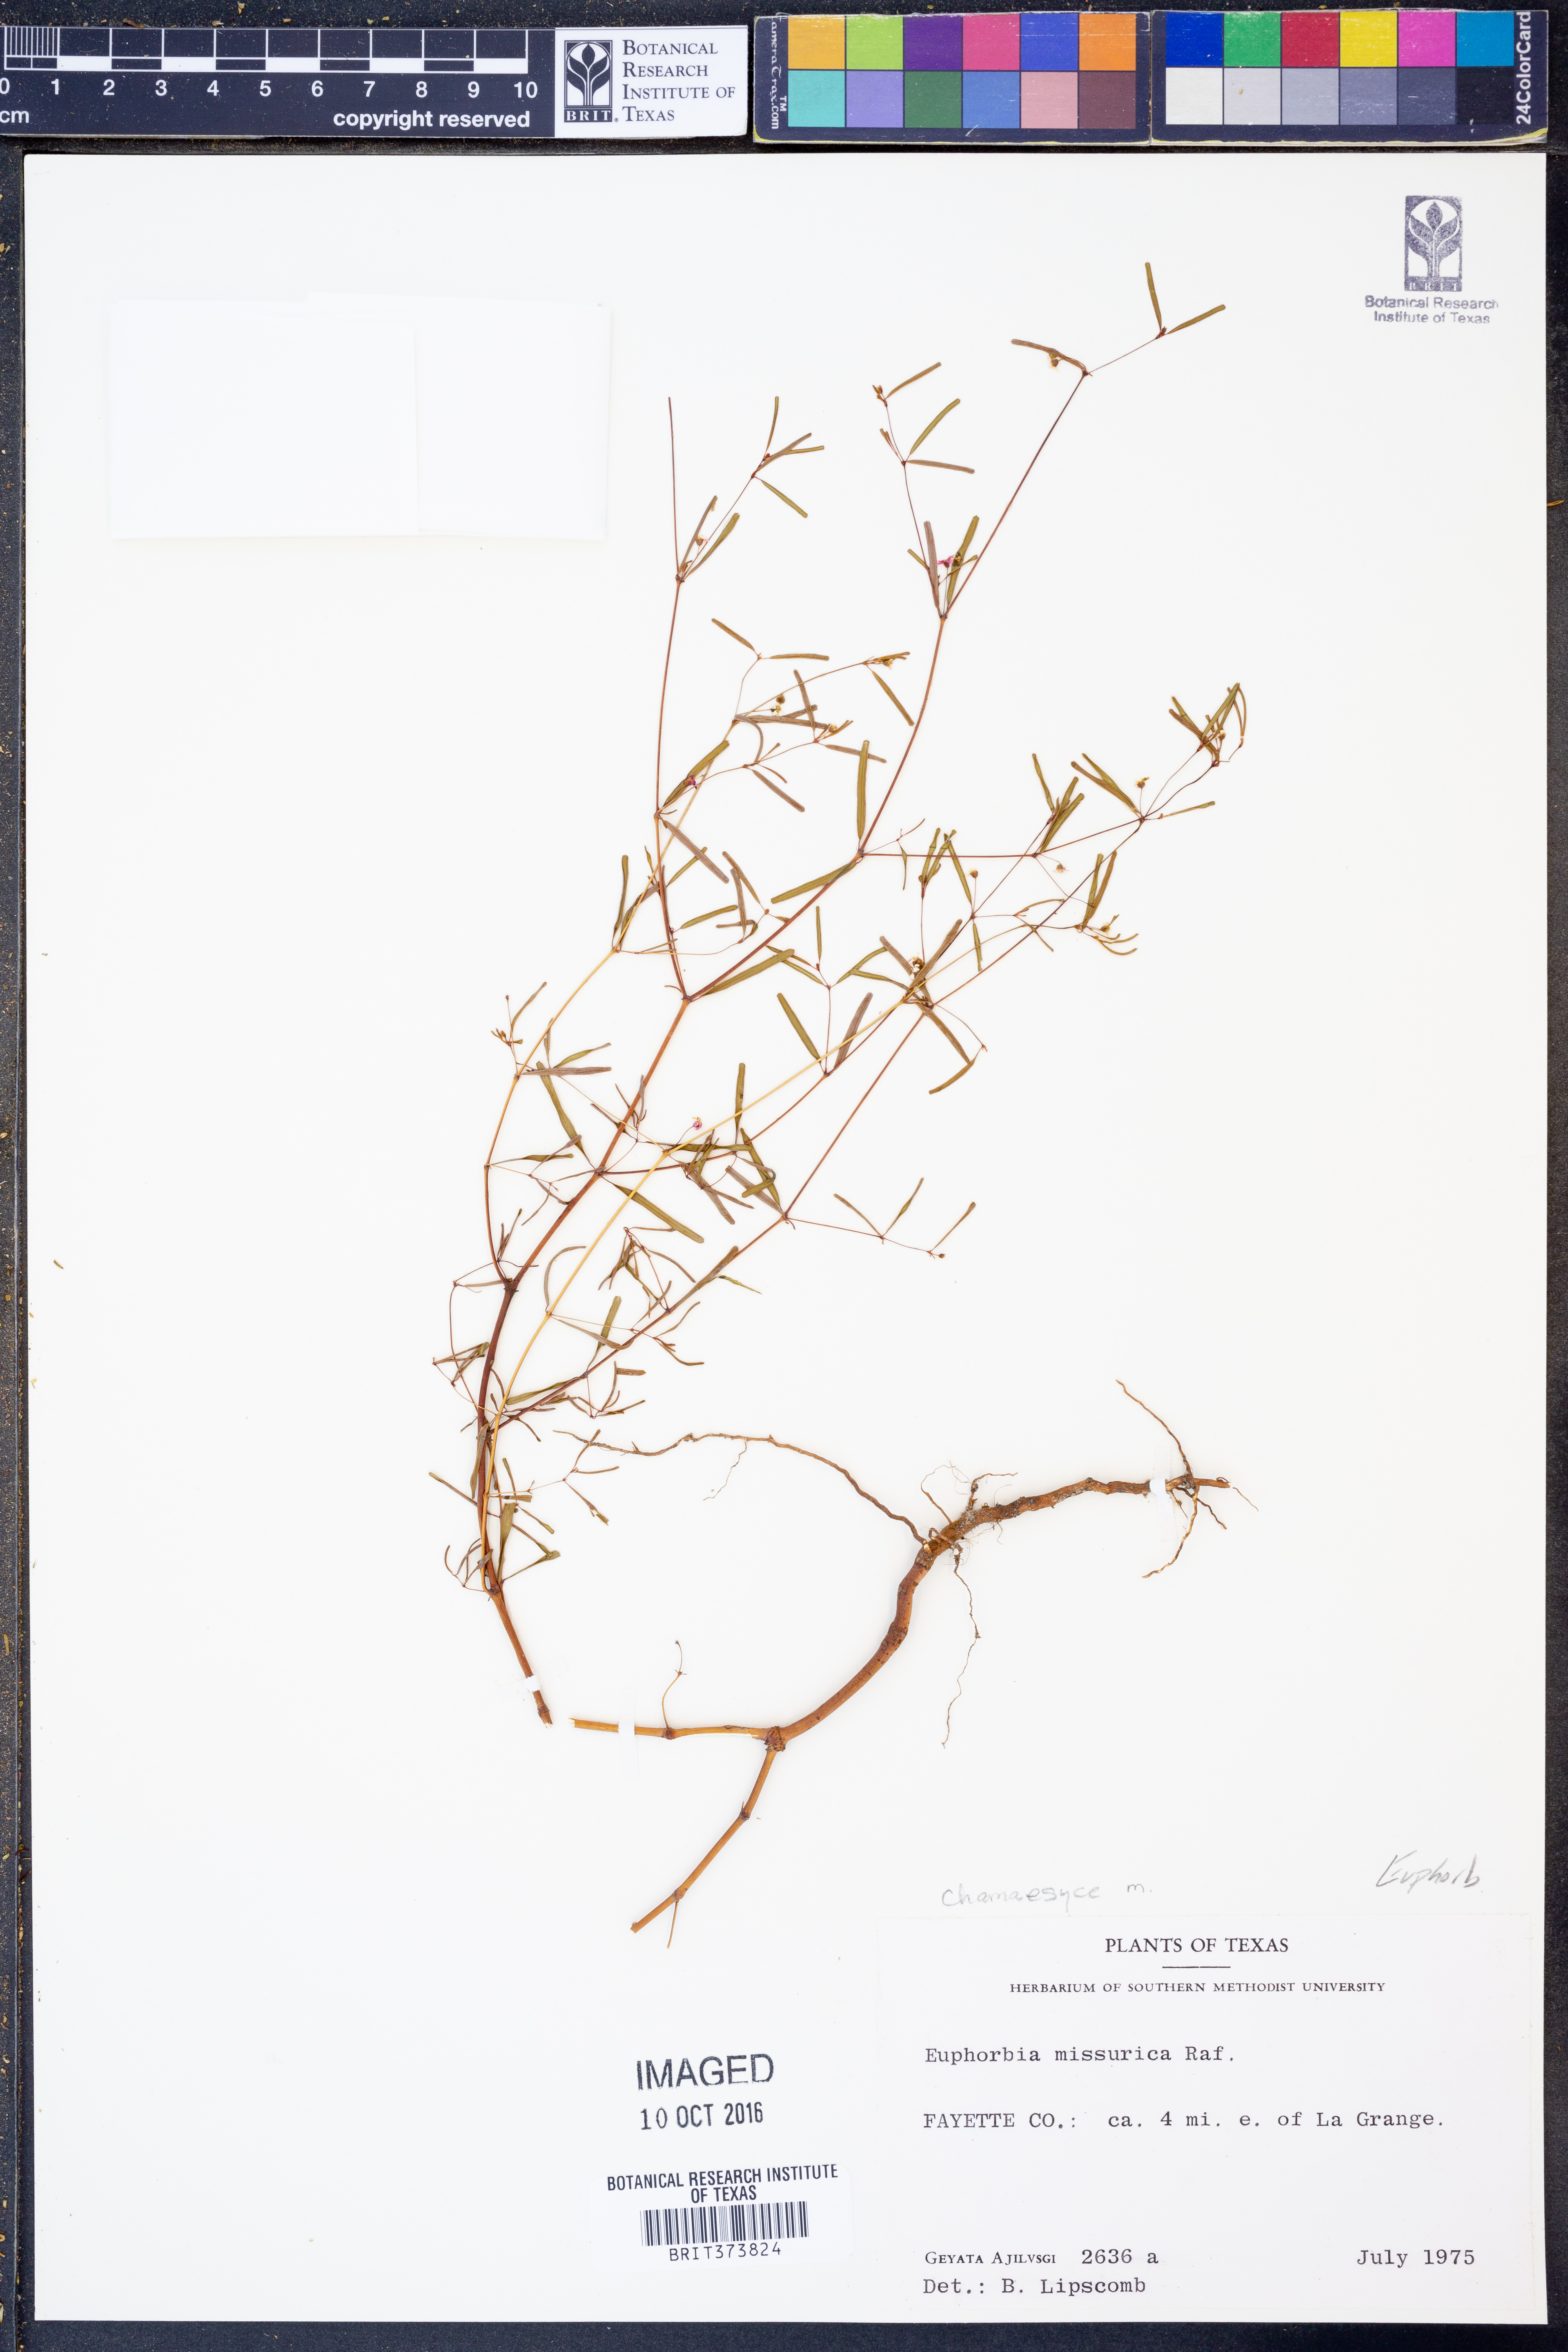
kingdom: Plantae
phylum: Tracheophyta
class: Magnoliopsida
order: Malpighiales
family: Euphorbiaceae
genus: Euphorbia
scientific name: Euphorbia missurica
